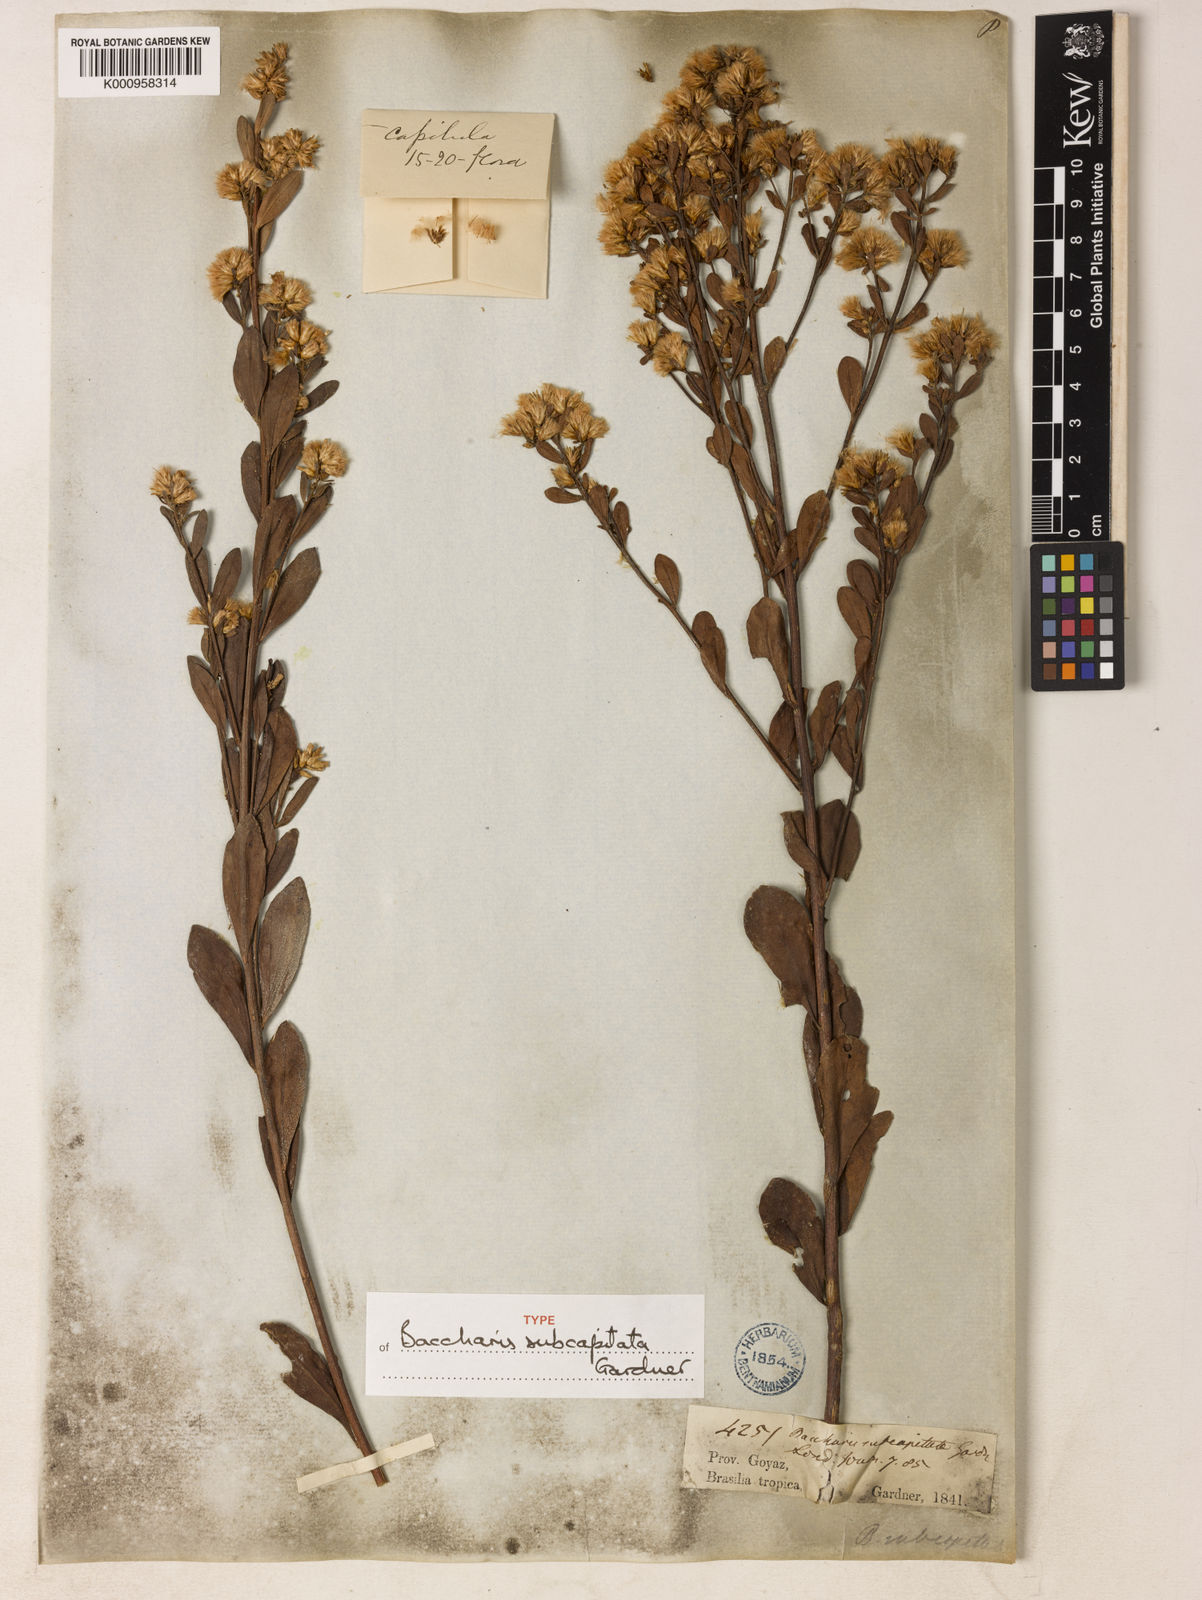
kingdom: Plantae
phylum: Tracheophyta
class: Magnoliopsida
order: Asterales
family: Asteraceae
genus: Baccharis
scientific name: Baccharis subdentata
